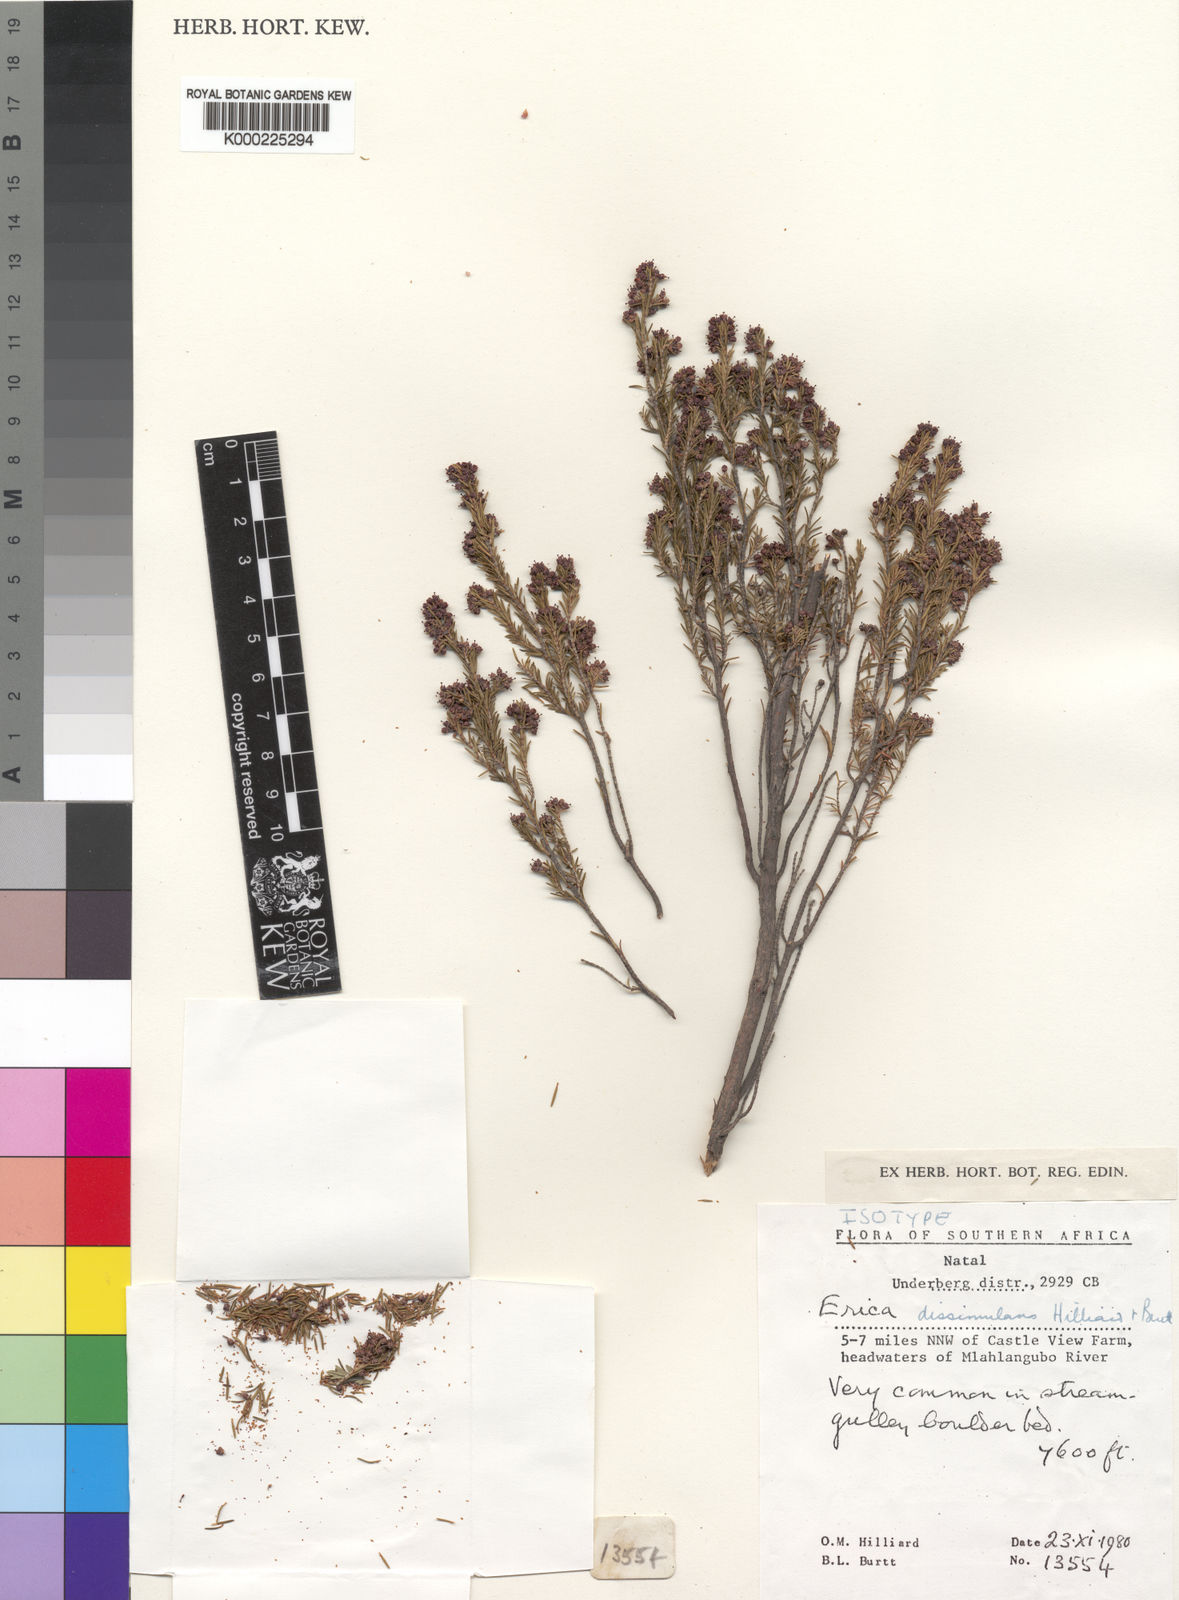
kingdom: Plantae
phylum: Tracheophyta
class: Magnoliopsida
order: Ericales
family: Ericaceae
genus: Erica
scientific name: Erica dissimulans
